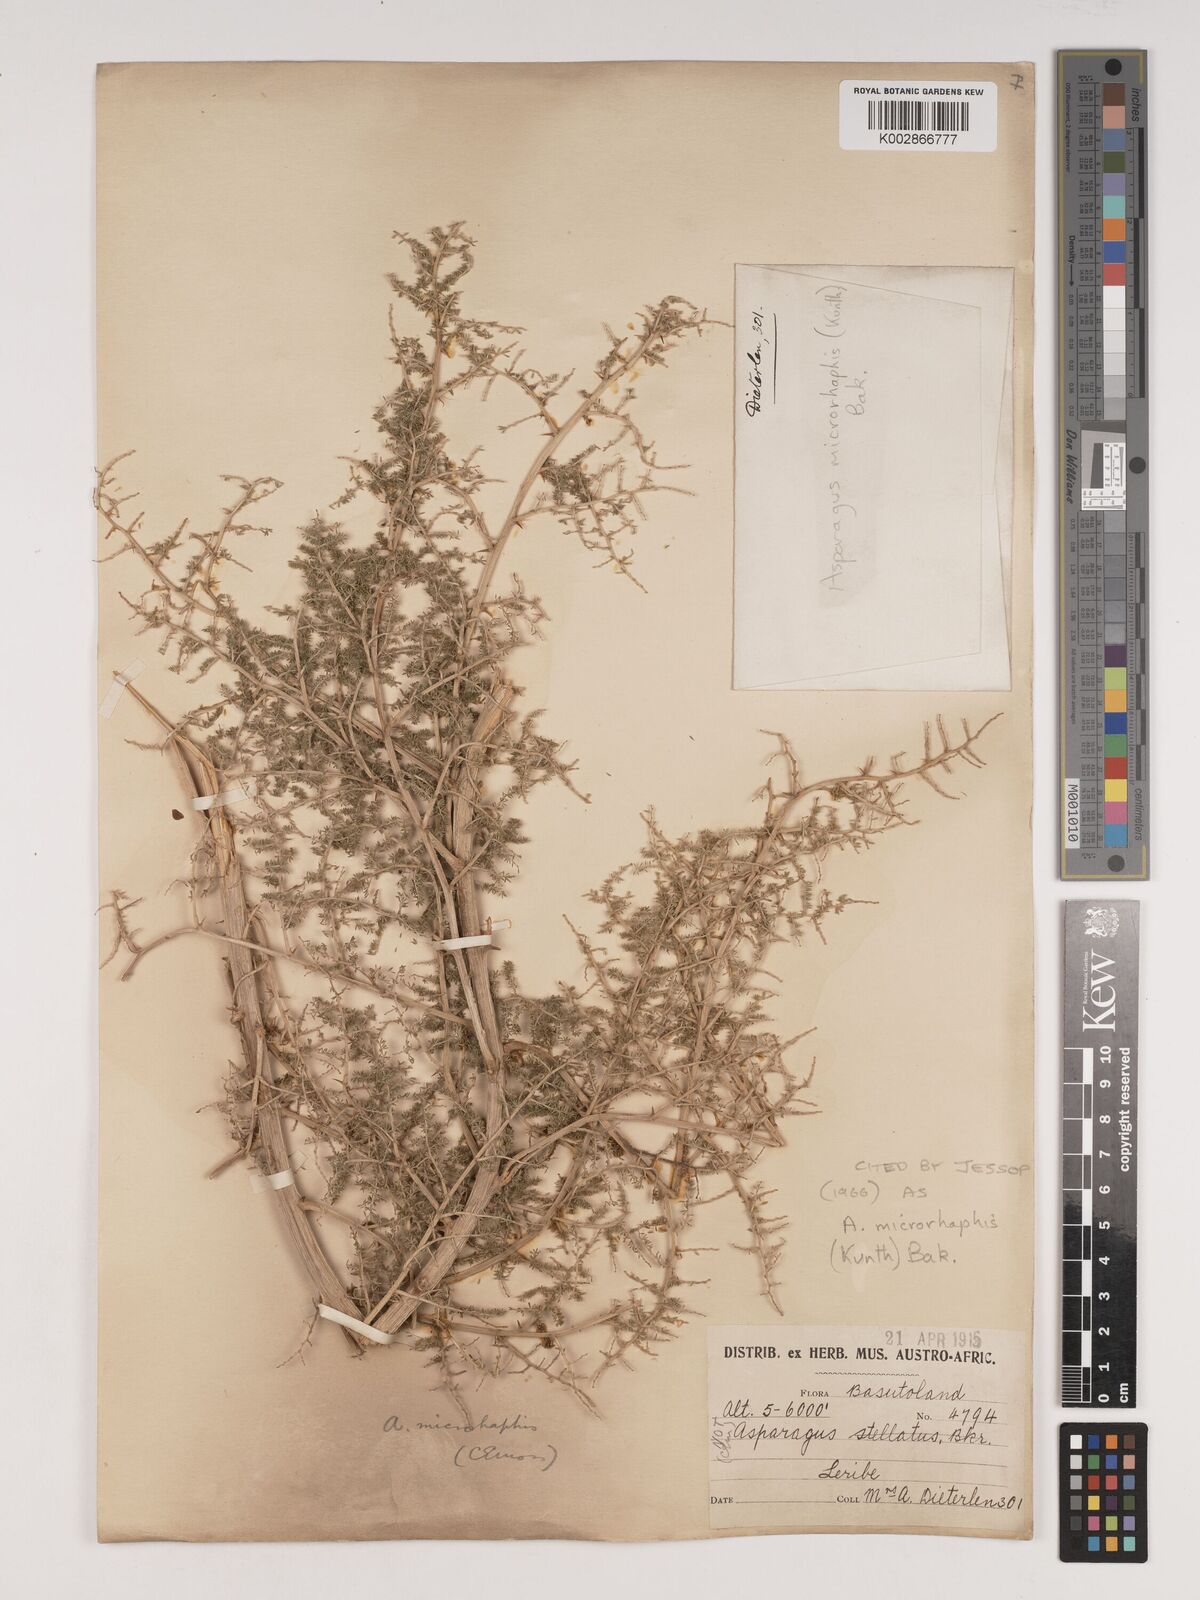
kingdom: Plantae
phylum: Tracheophyta
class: Liliopsida
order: Asparagales
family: Asparagaceae
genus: Asparagus
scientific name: Asparagus microraphis
